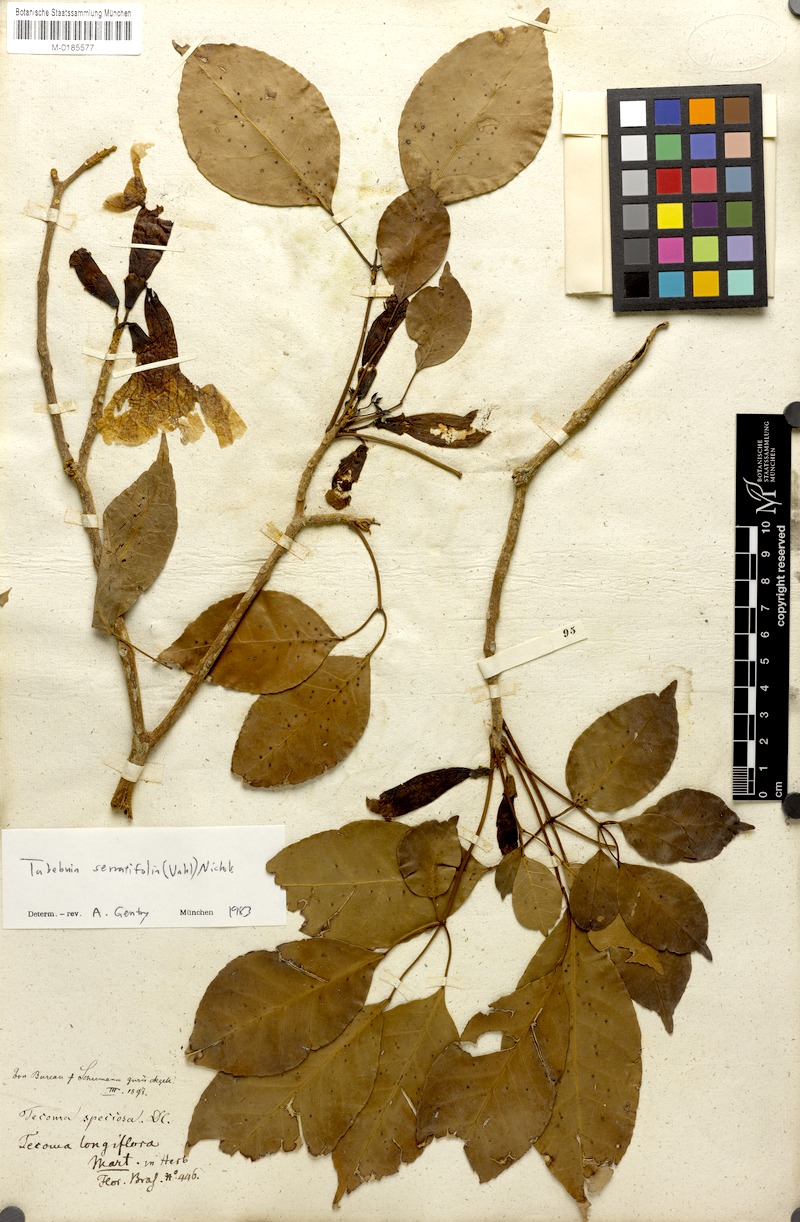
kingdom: Plantae
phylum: Tracheophyta
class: Magnoliopsida
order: Lamiales
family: Bignoniaceae
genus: Handroanthus
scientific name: Handroanthus serratifolius
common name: Yellow ipe
